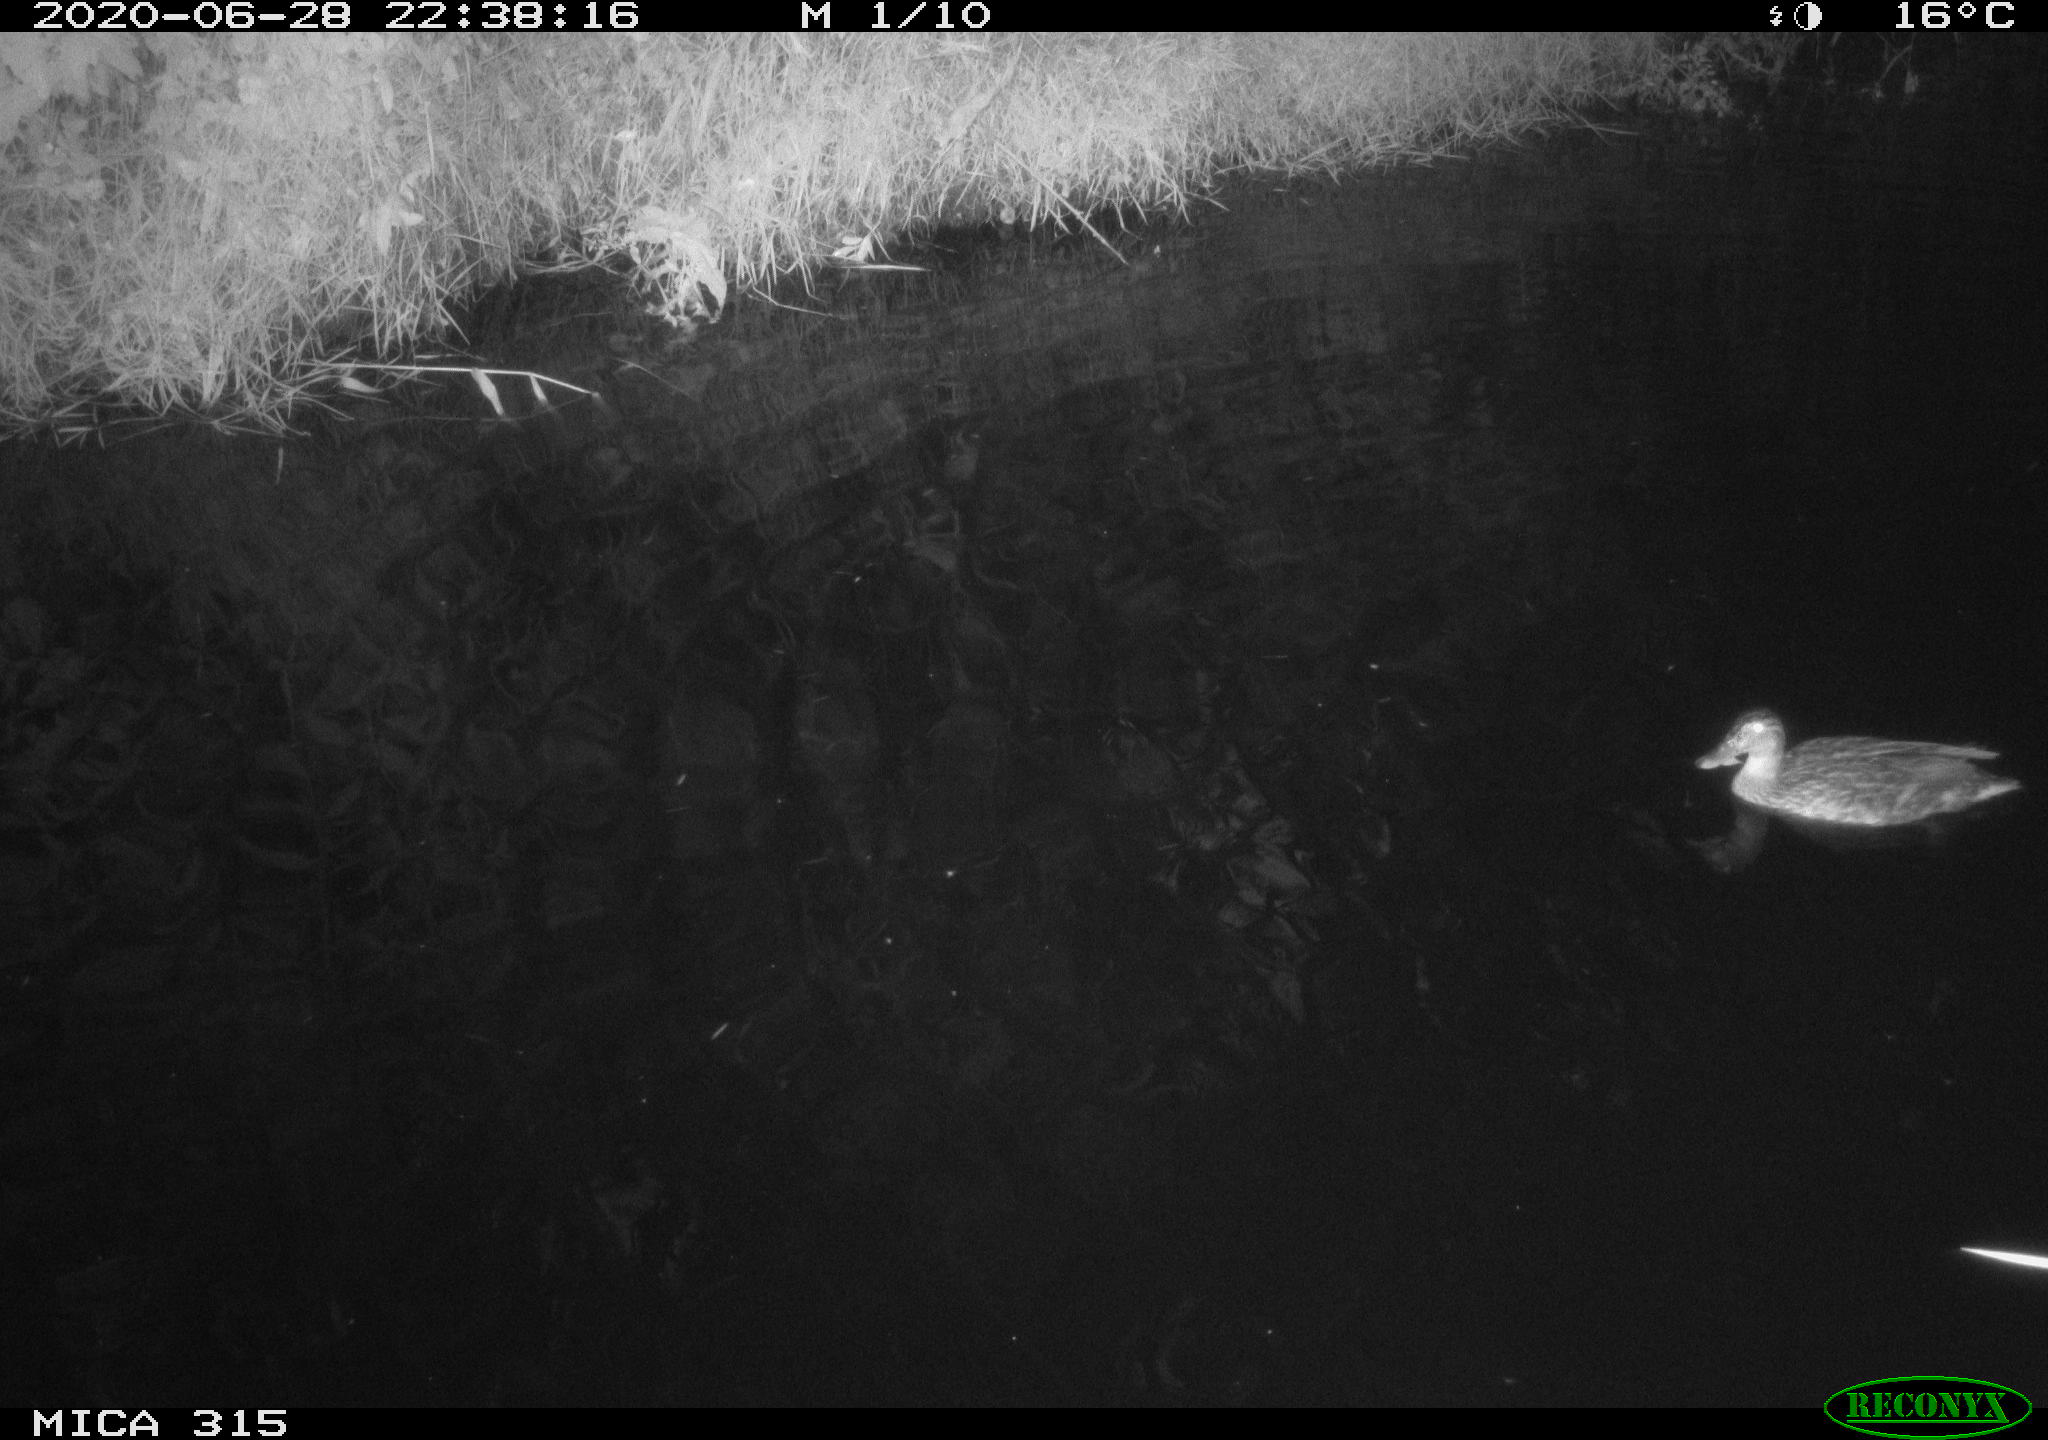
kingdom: Animalia
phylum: Chordata
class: Aves
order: Anseriformes
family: Anatidae
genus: Anas
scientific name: Anas platyrhynchos
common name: Mallard
